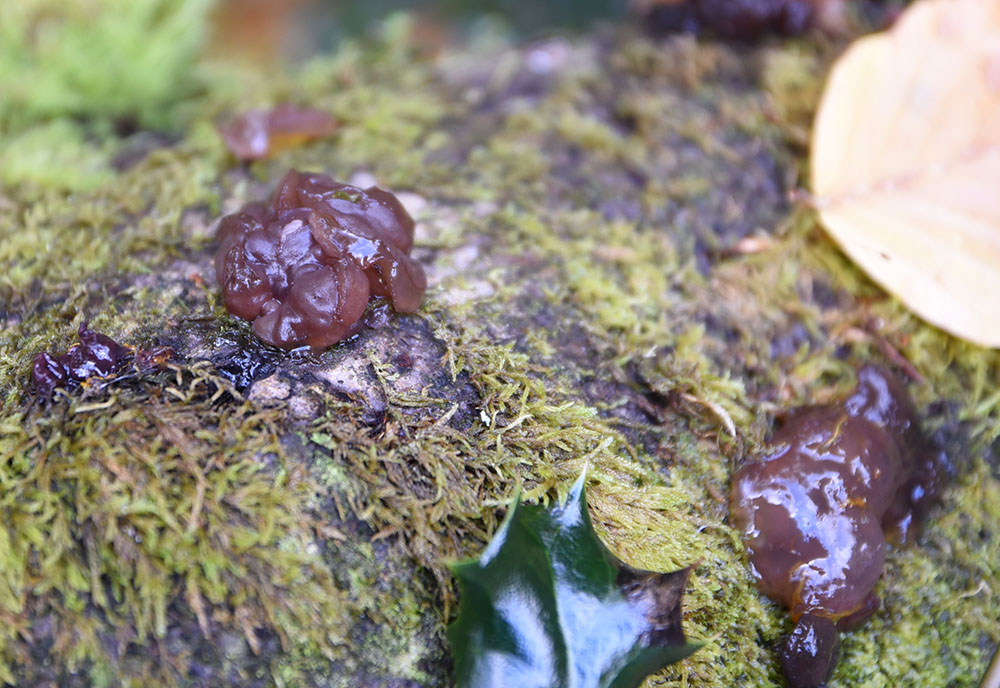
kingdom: Fungi
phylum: Ascomycota
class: Leotiomycetes
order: Helotiales
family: Gelatinodiscaceae
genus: Neobulgaria
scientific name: Neobulgaria pura
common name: Beech jelly-disc
